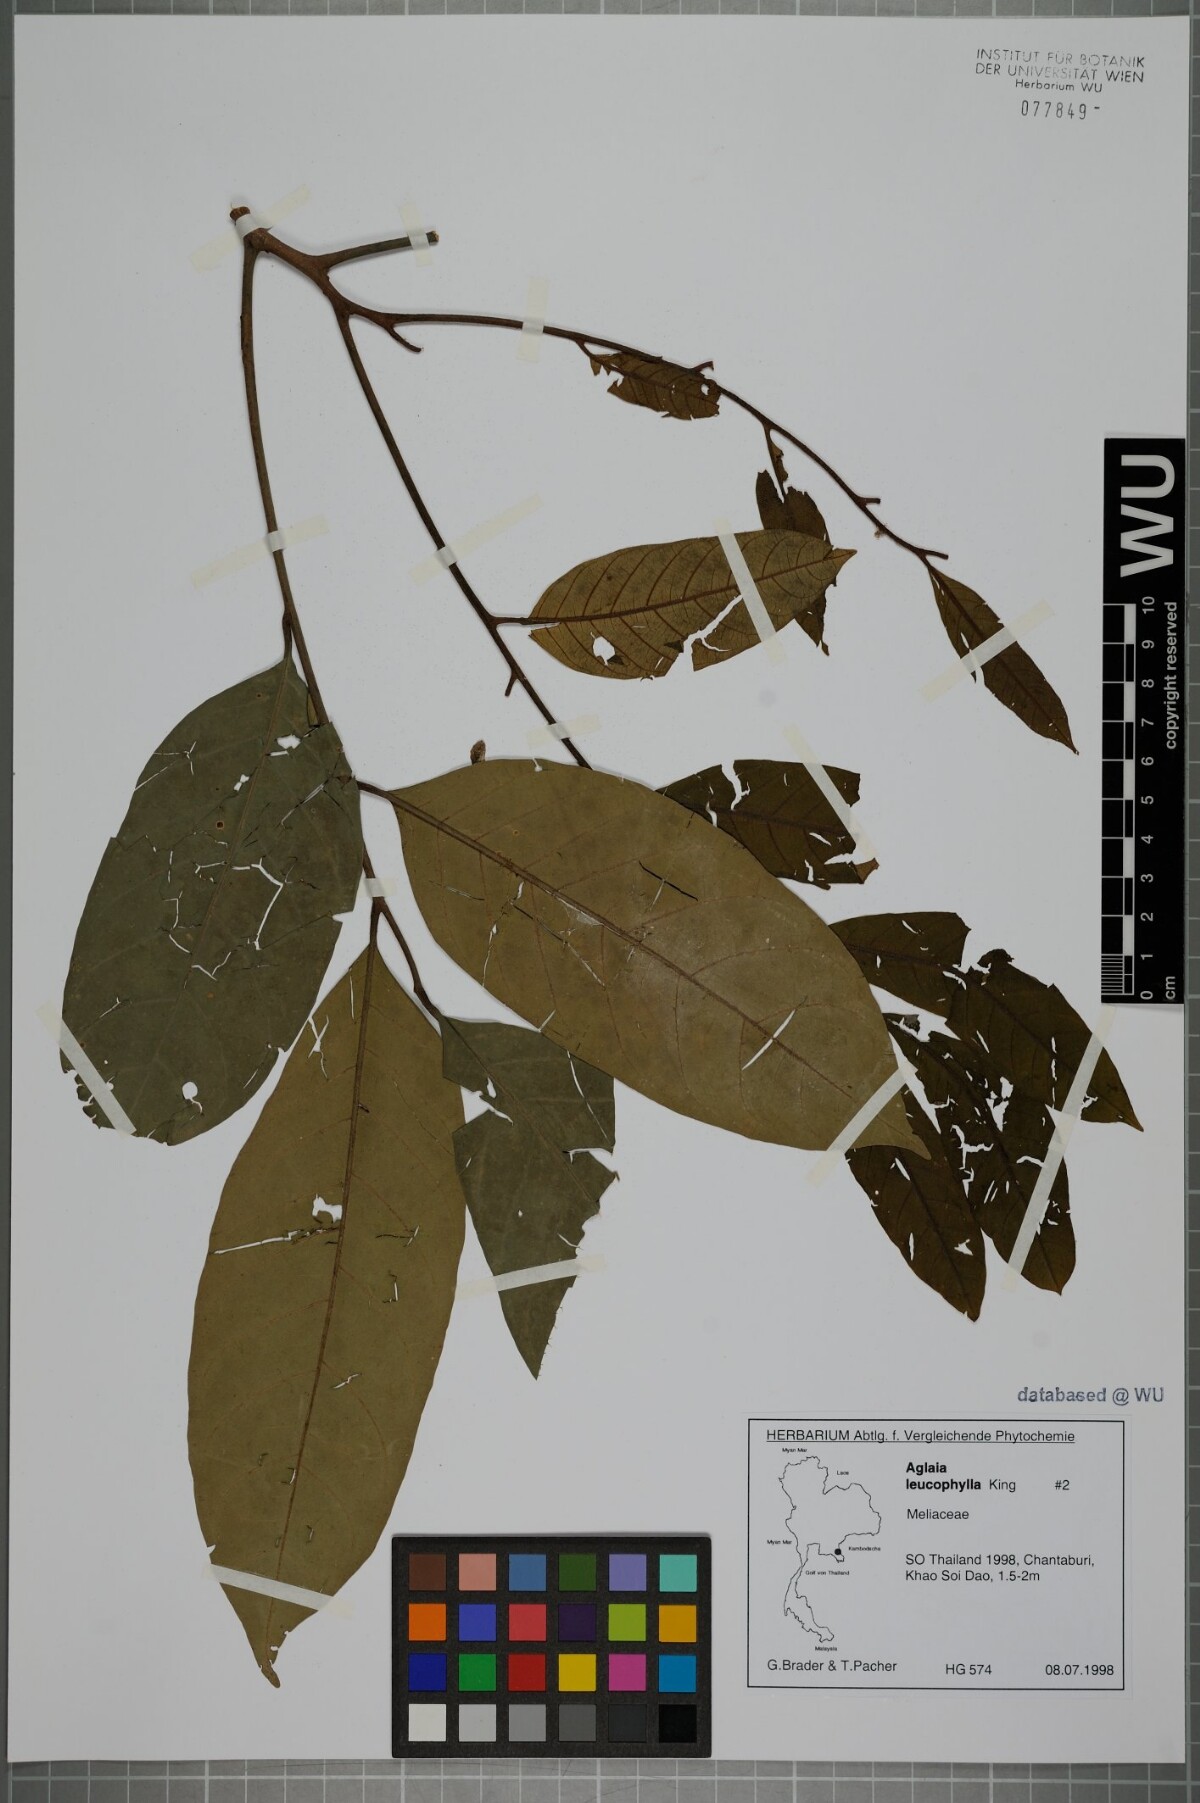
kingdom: Plantae
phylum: Tracheophyta
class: Magnoliopsida
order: Sapindales
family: Meliaceae
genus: Aglaia
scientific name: Aglaia leucophylla
